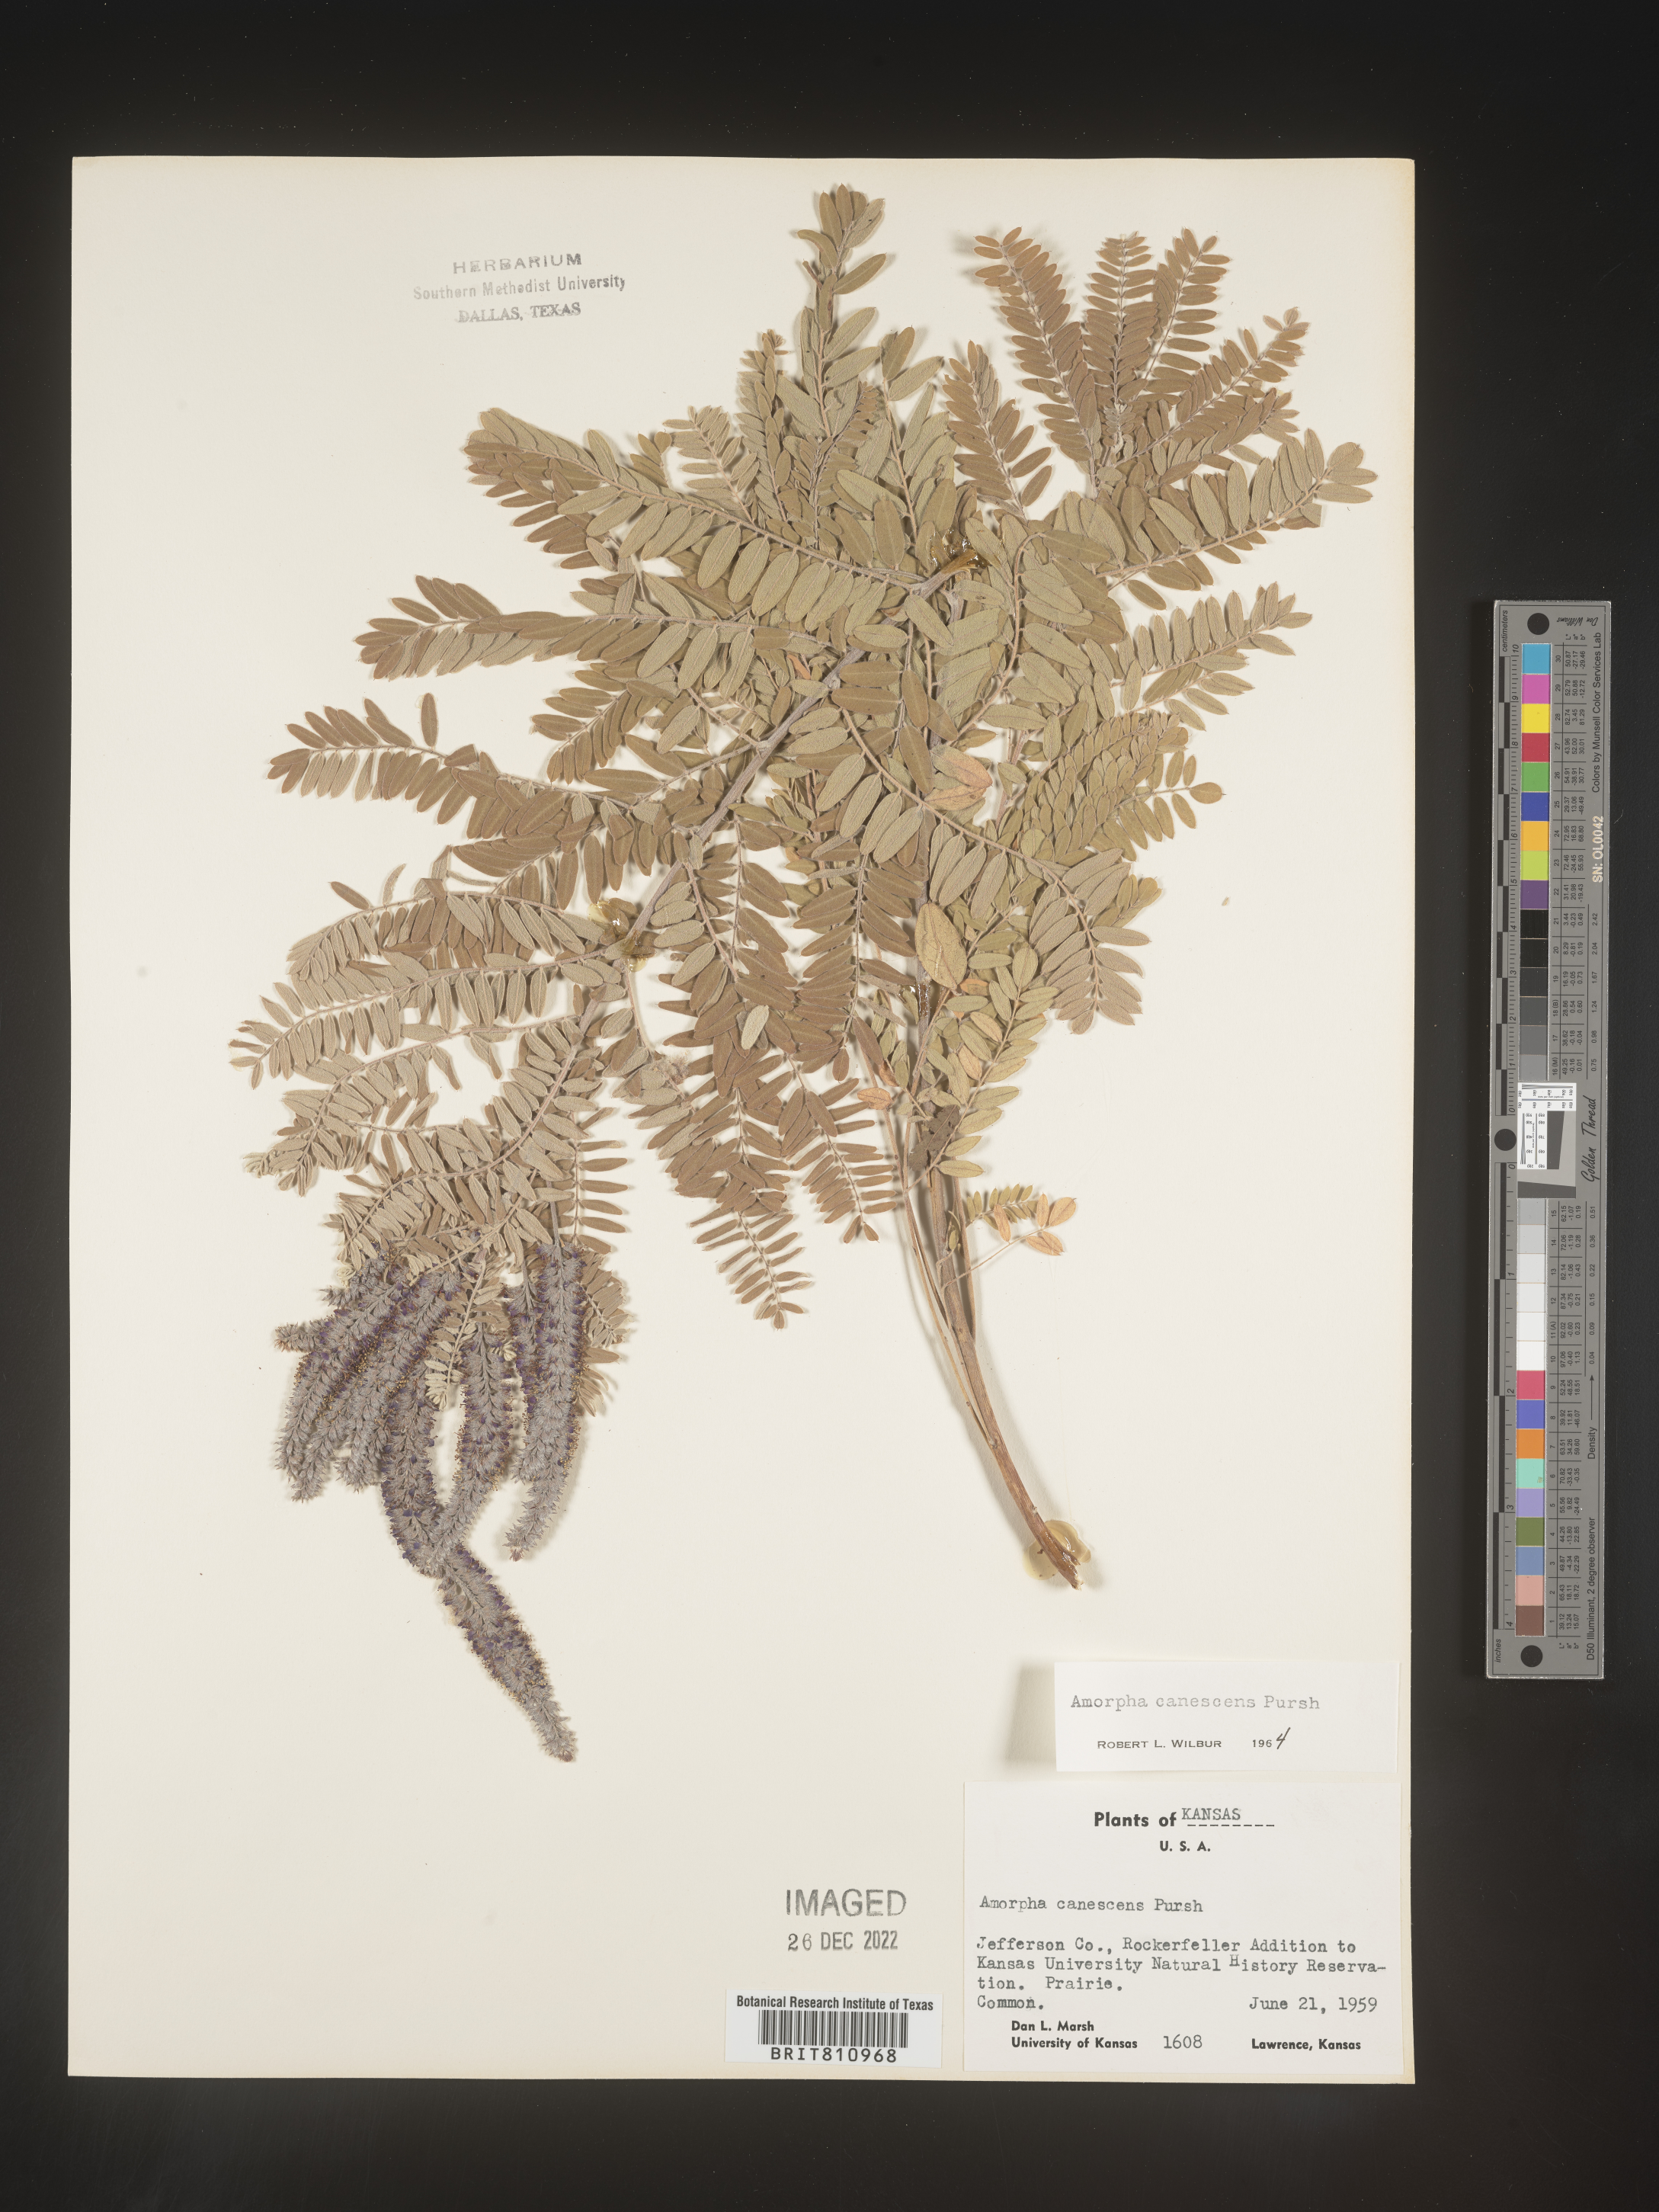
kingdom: Plantae
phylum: Tracheophyta
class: Magnoliopsida
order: Fabales
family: Fabaceae
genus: Amorpha
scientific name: Amorpha canescens
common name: Leadplant
